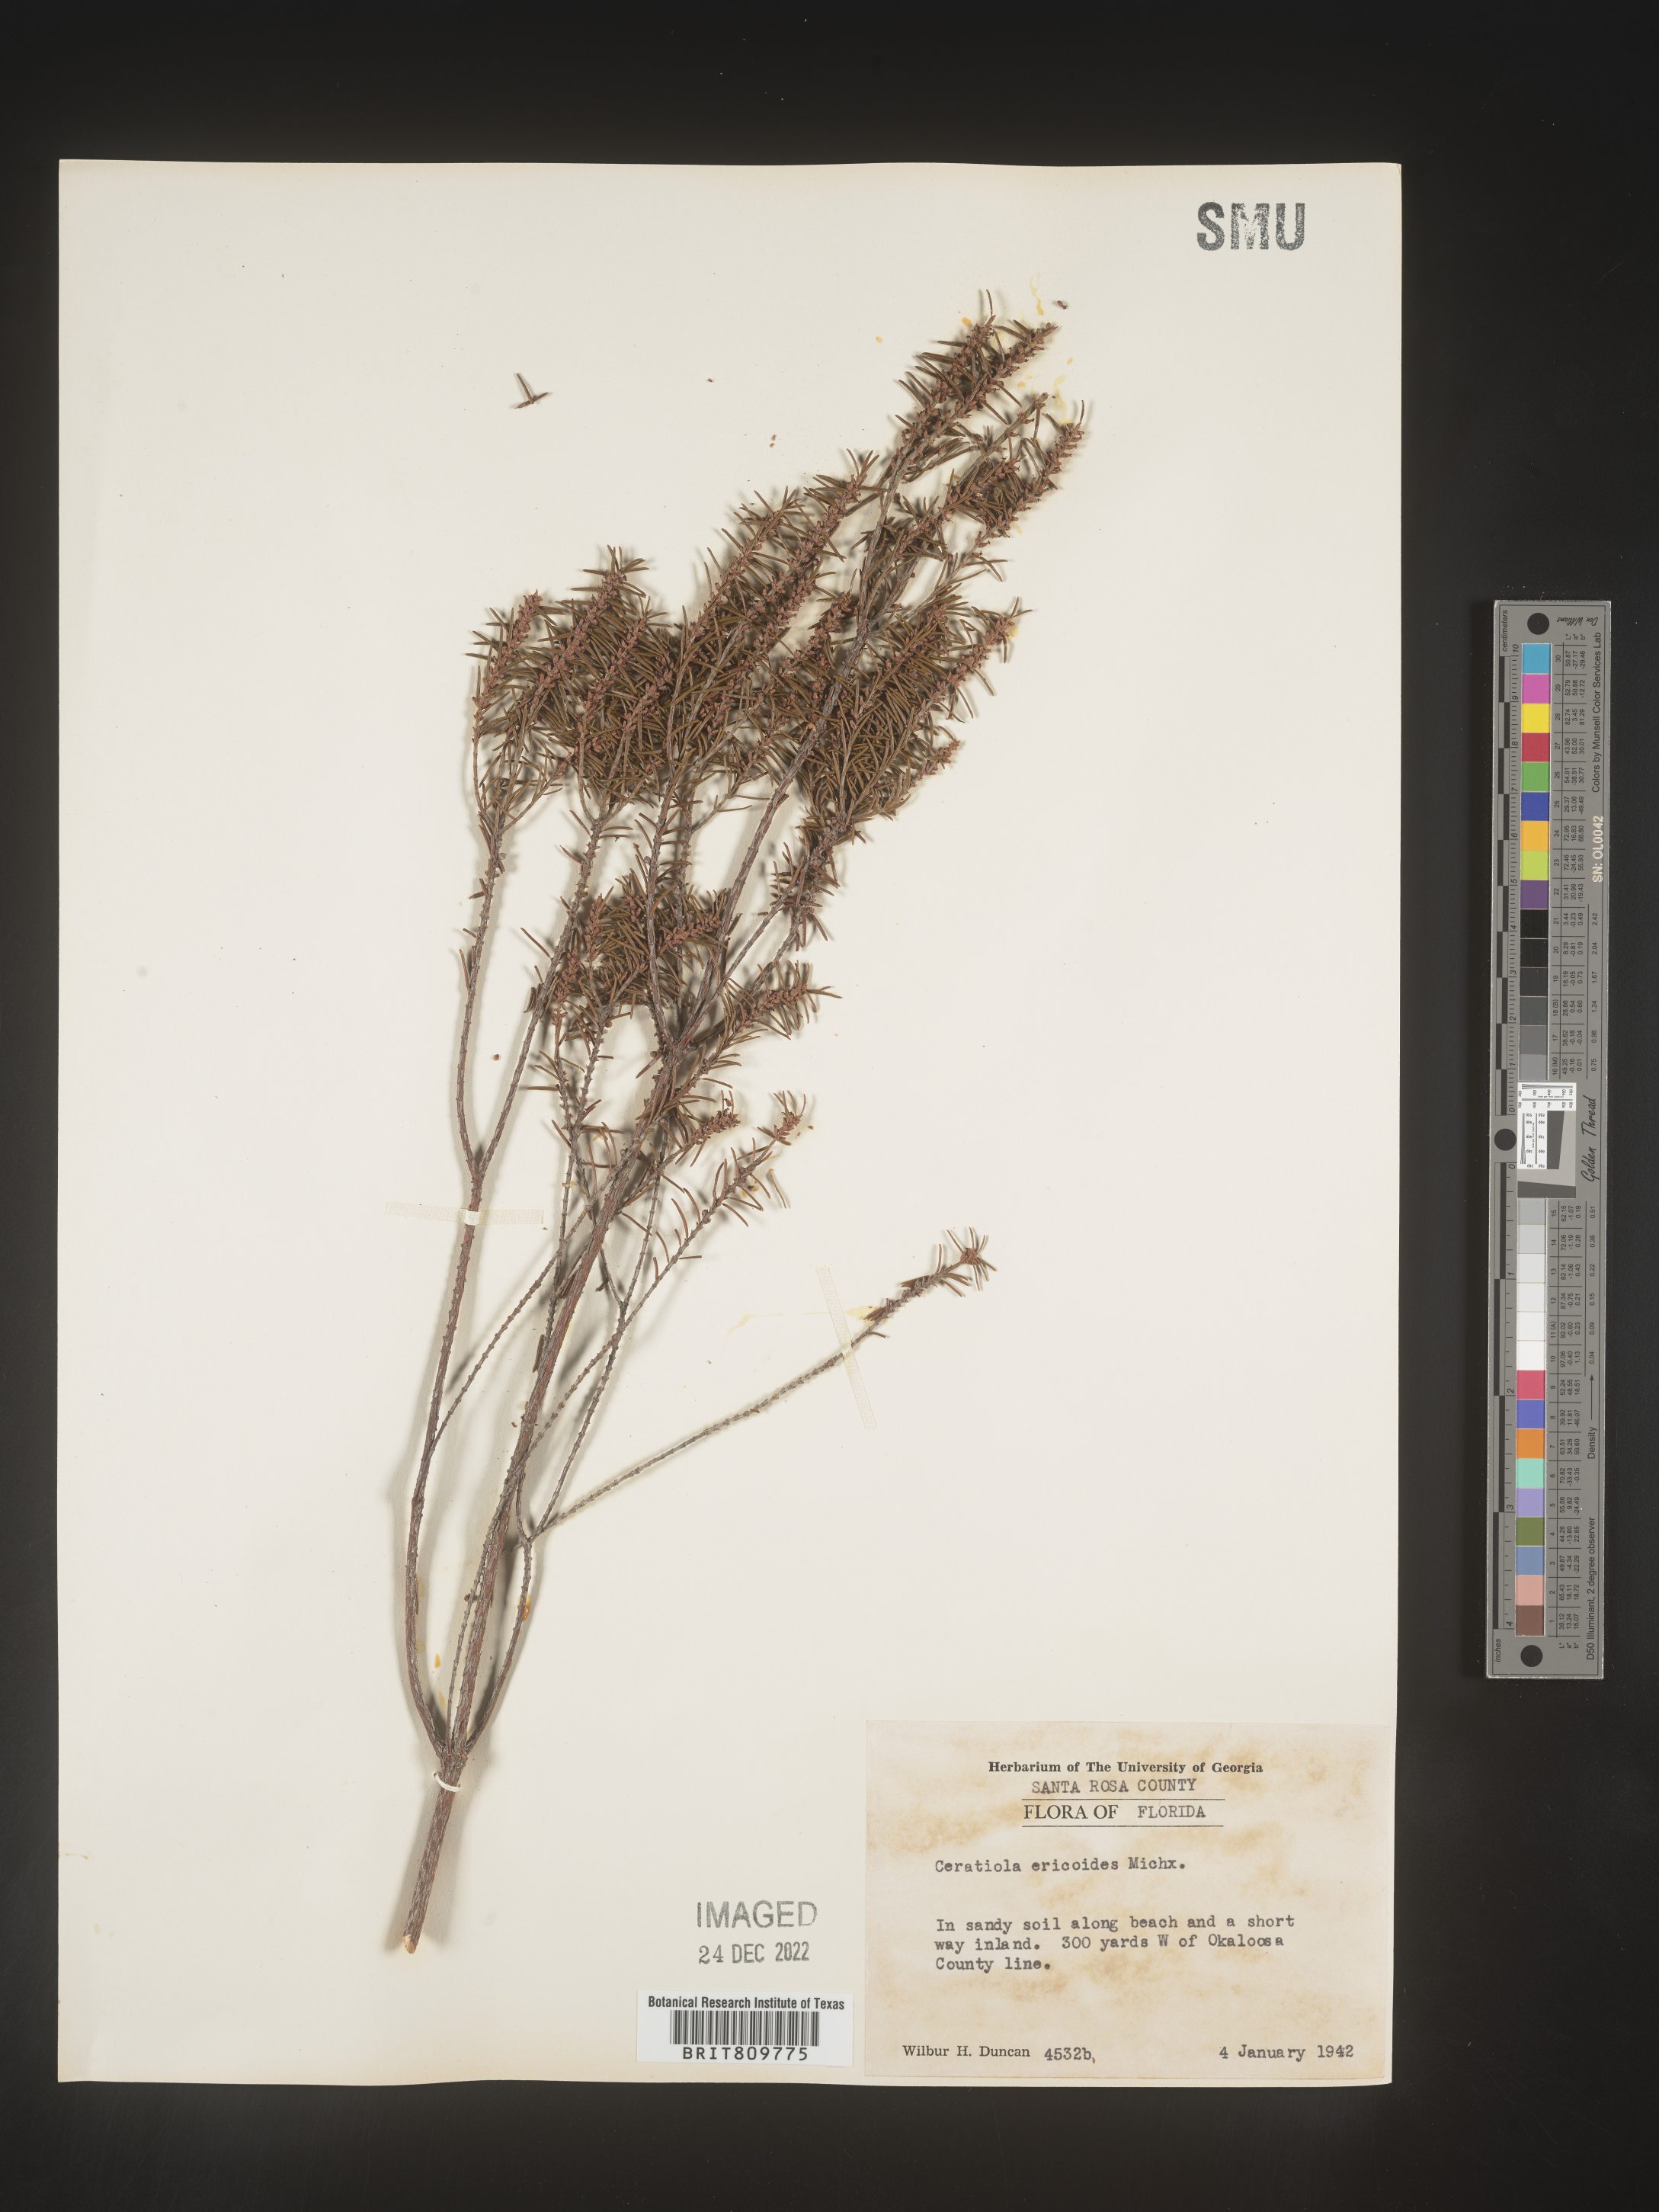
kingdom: Plantae
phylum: Tracheophyta
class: Magnoliopsida
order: Ericales
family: Ericaceae
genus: Ceratiola
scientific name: Ceratiola ericoides
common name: Sandhill-rosemary
